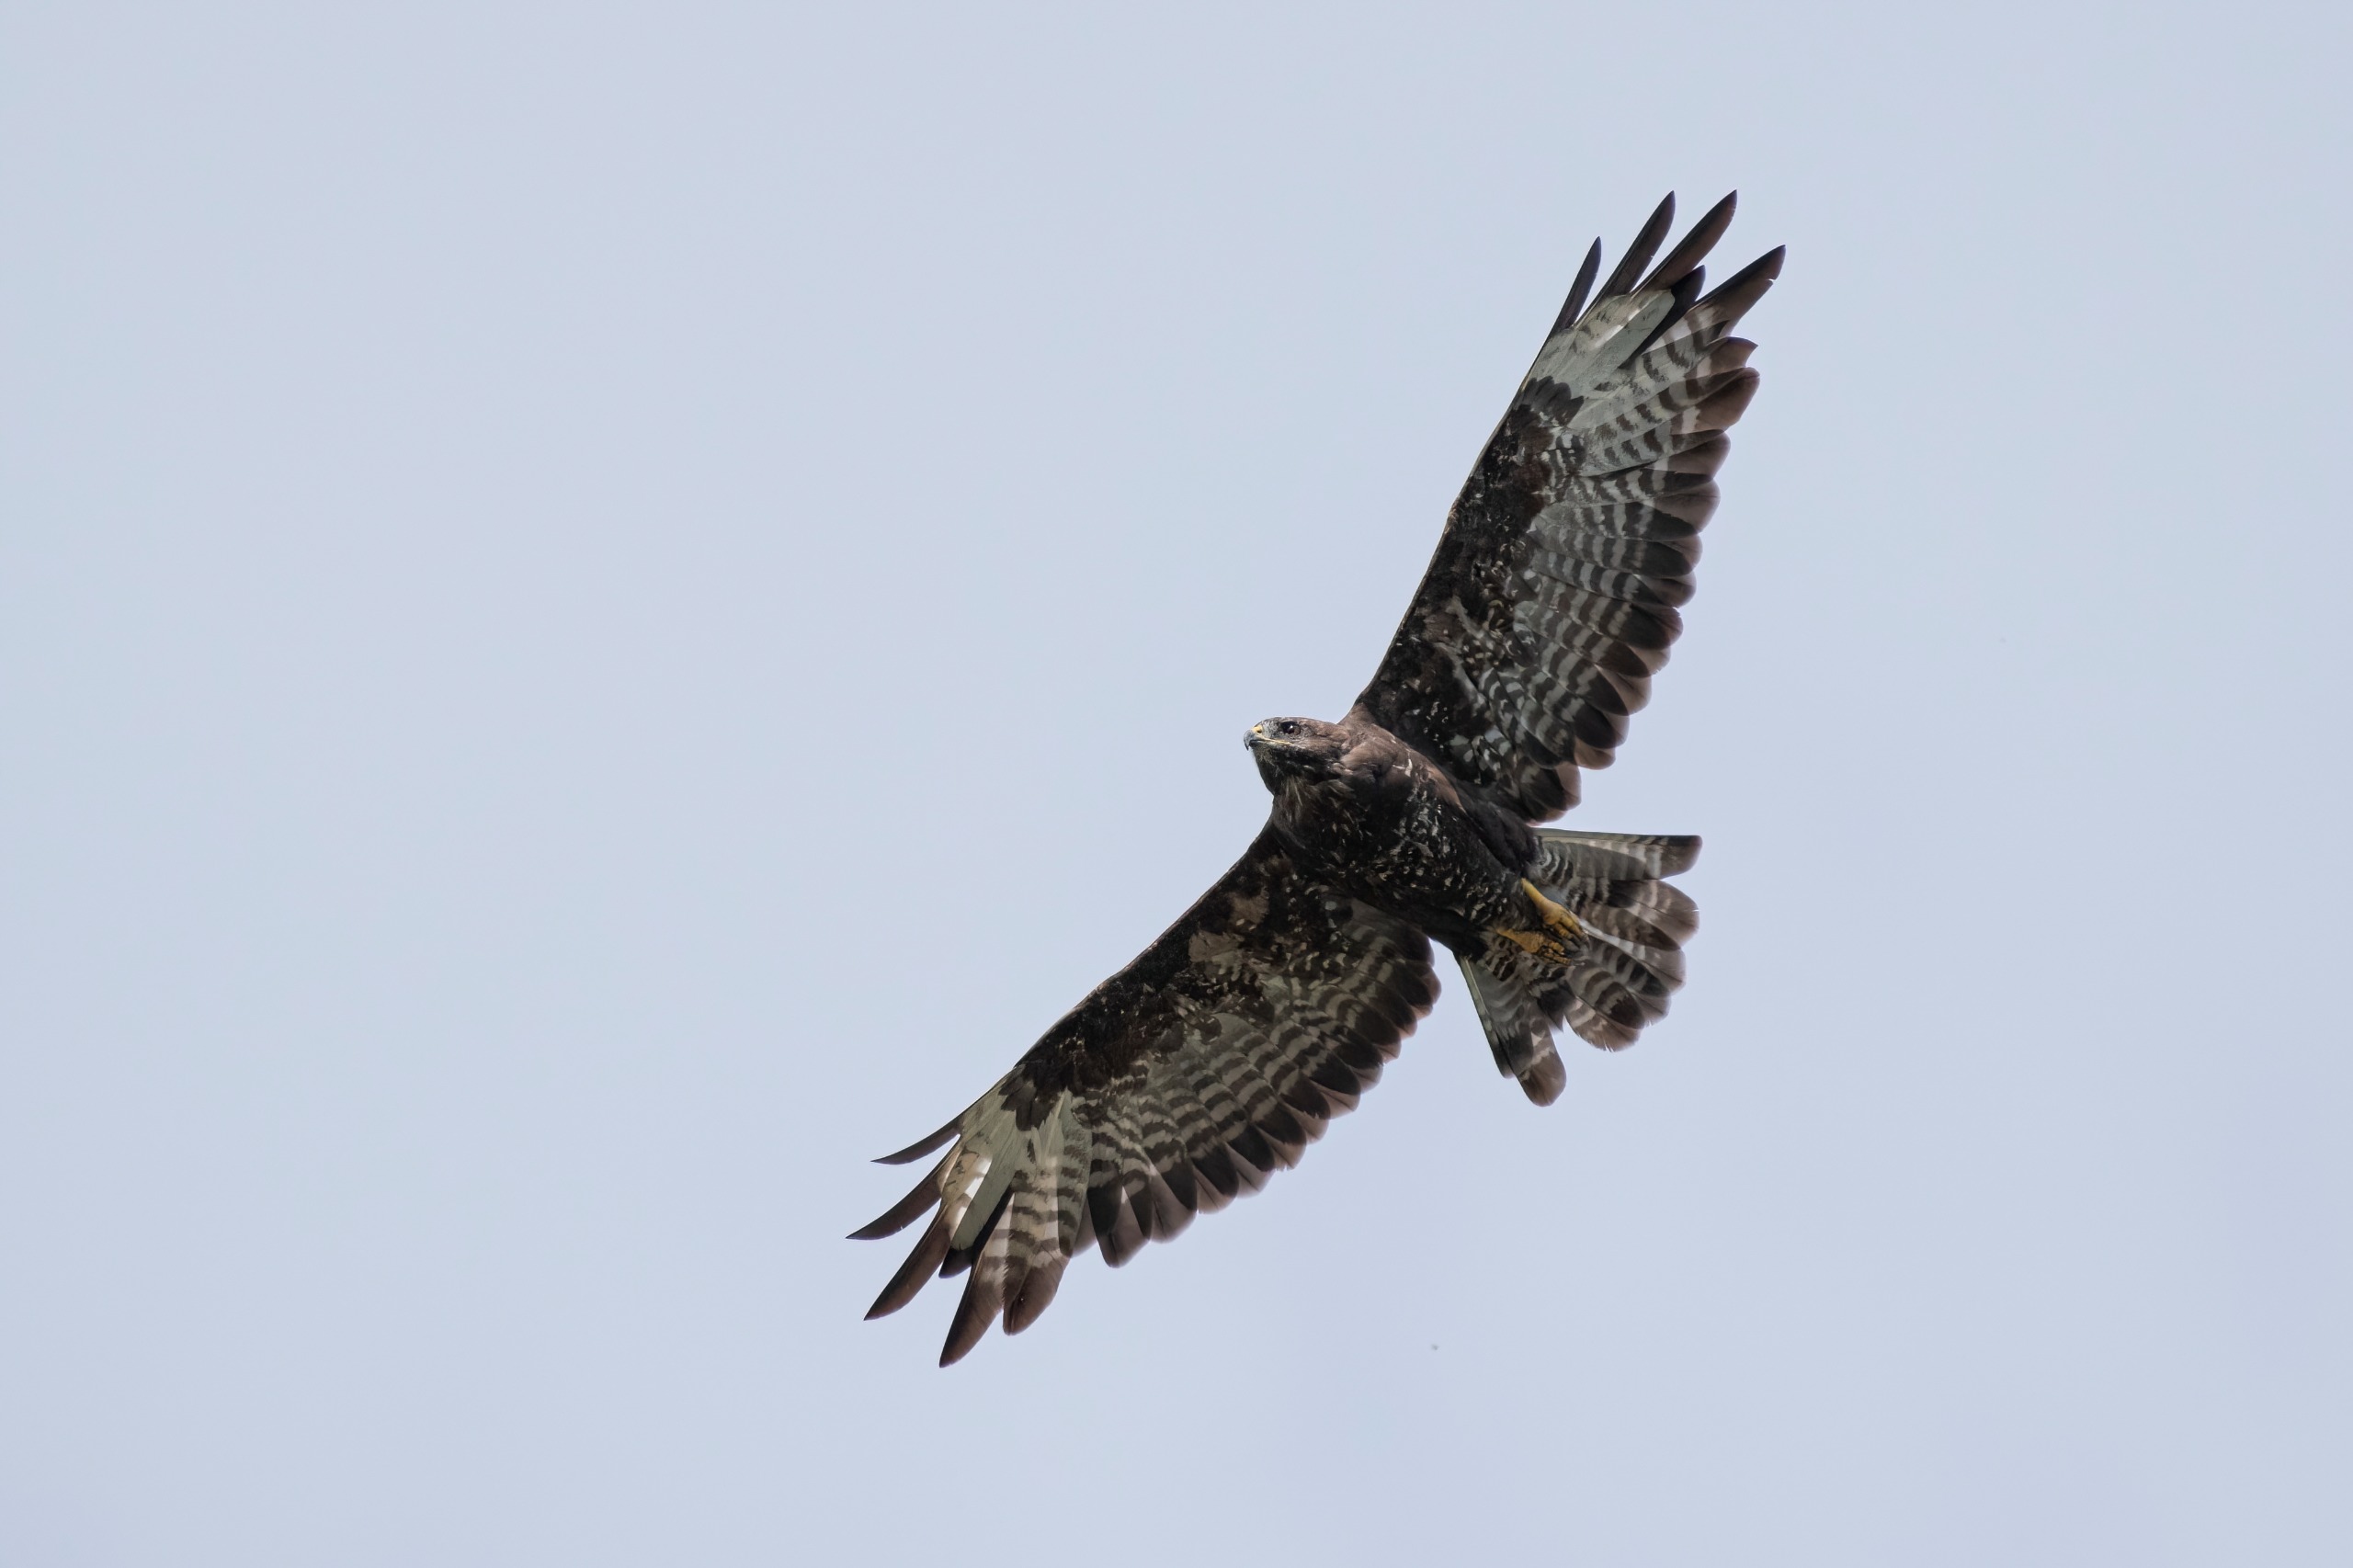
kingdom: Animalia
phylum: Chordata
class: Aves
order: Accipitriformes
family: Accipitridae
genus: Buteo
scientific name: Buteo buteo
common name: Musvåge
